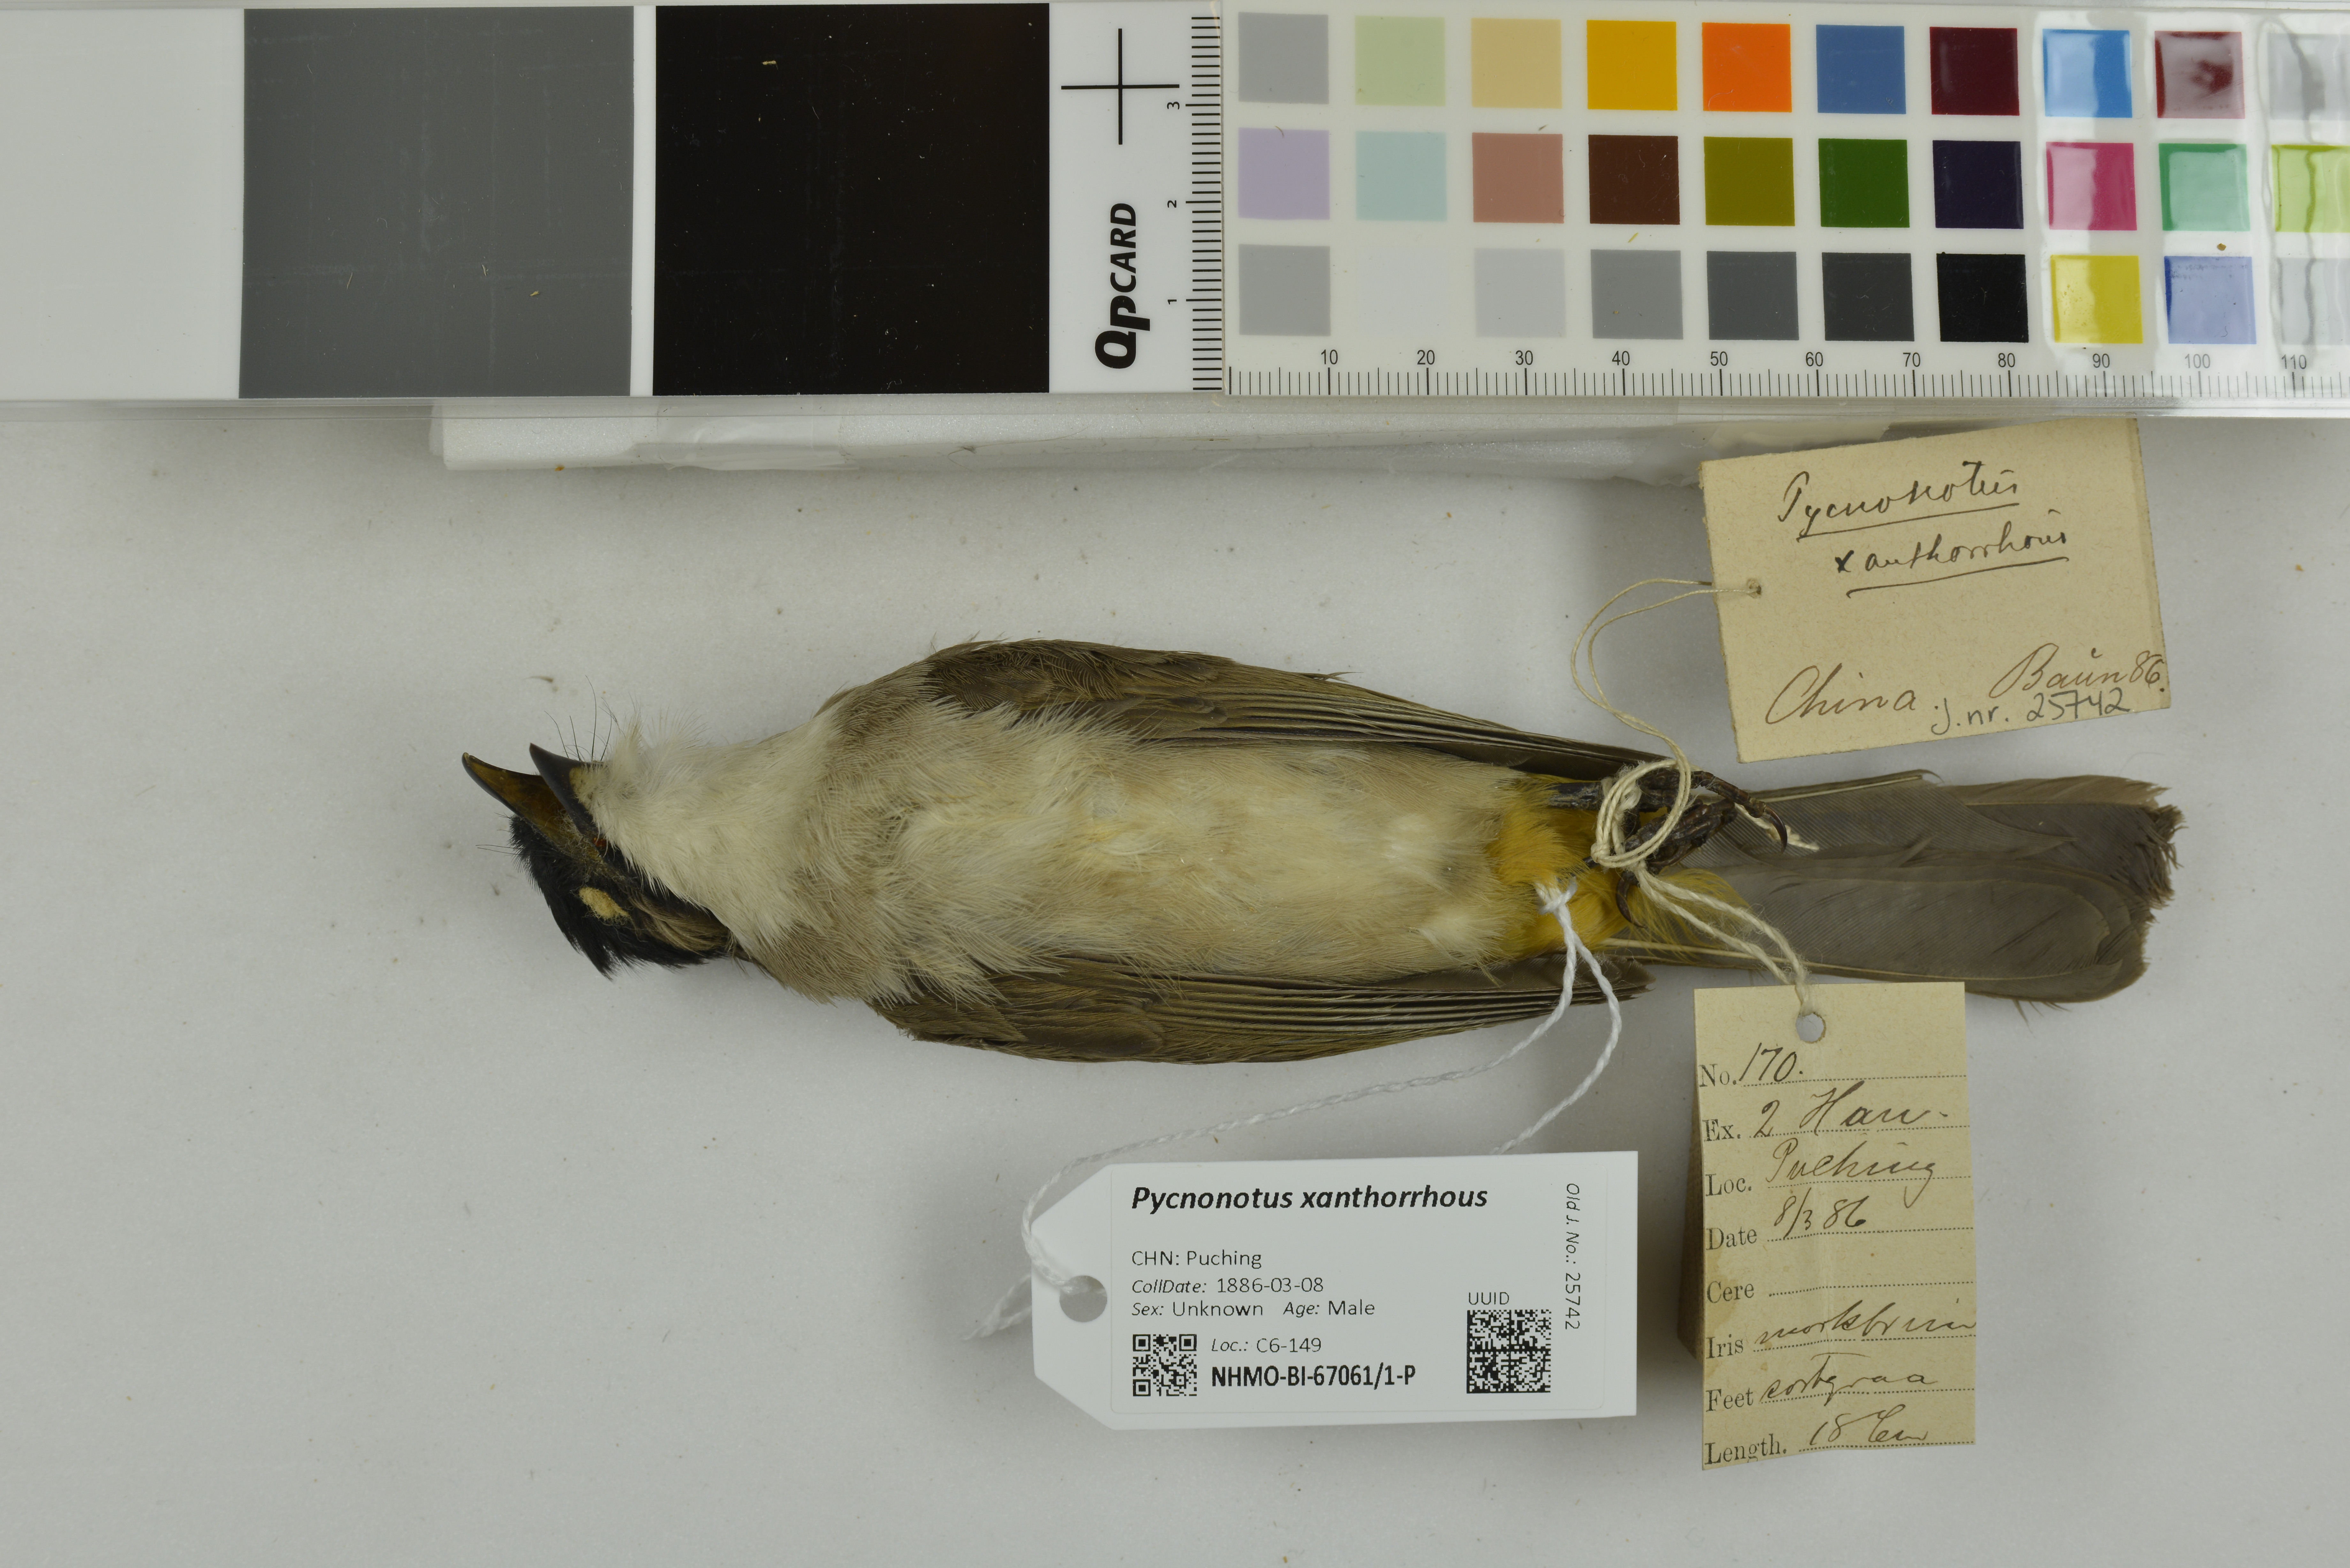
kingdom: Animalia
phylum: Chordata
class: Aves
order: Passeriformes
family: Pycnonotidae
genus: Pycnonotus
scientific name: Pycnonotus xanthorrhous
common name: Brown-breasted bulbul
